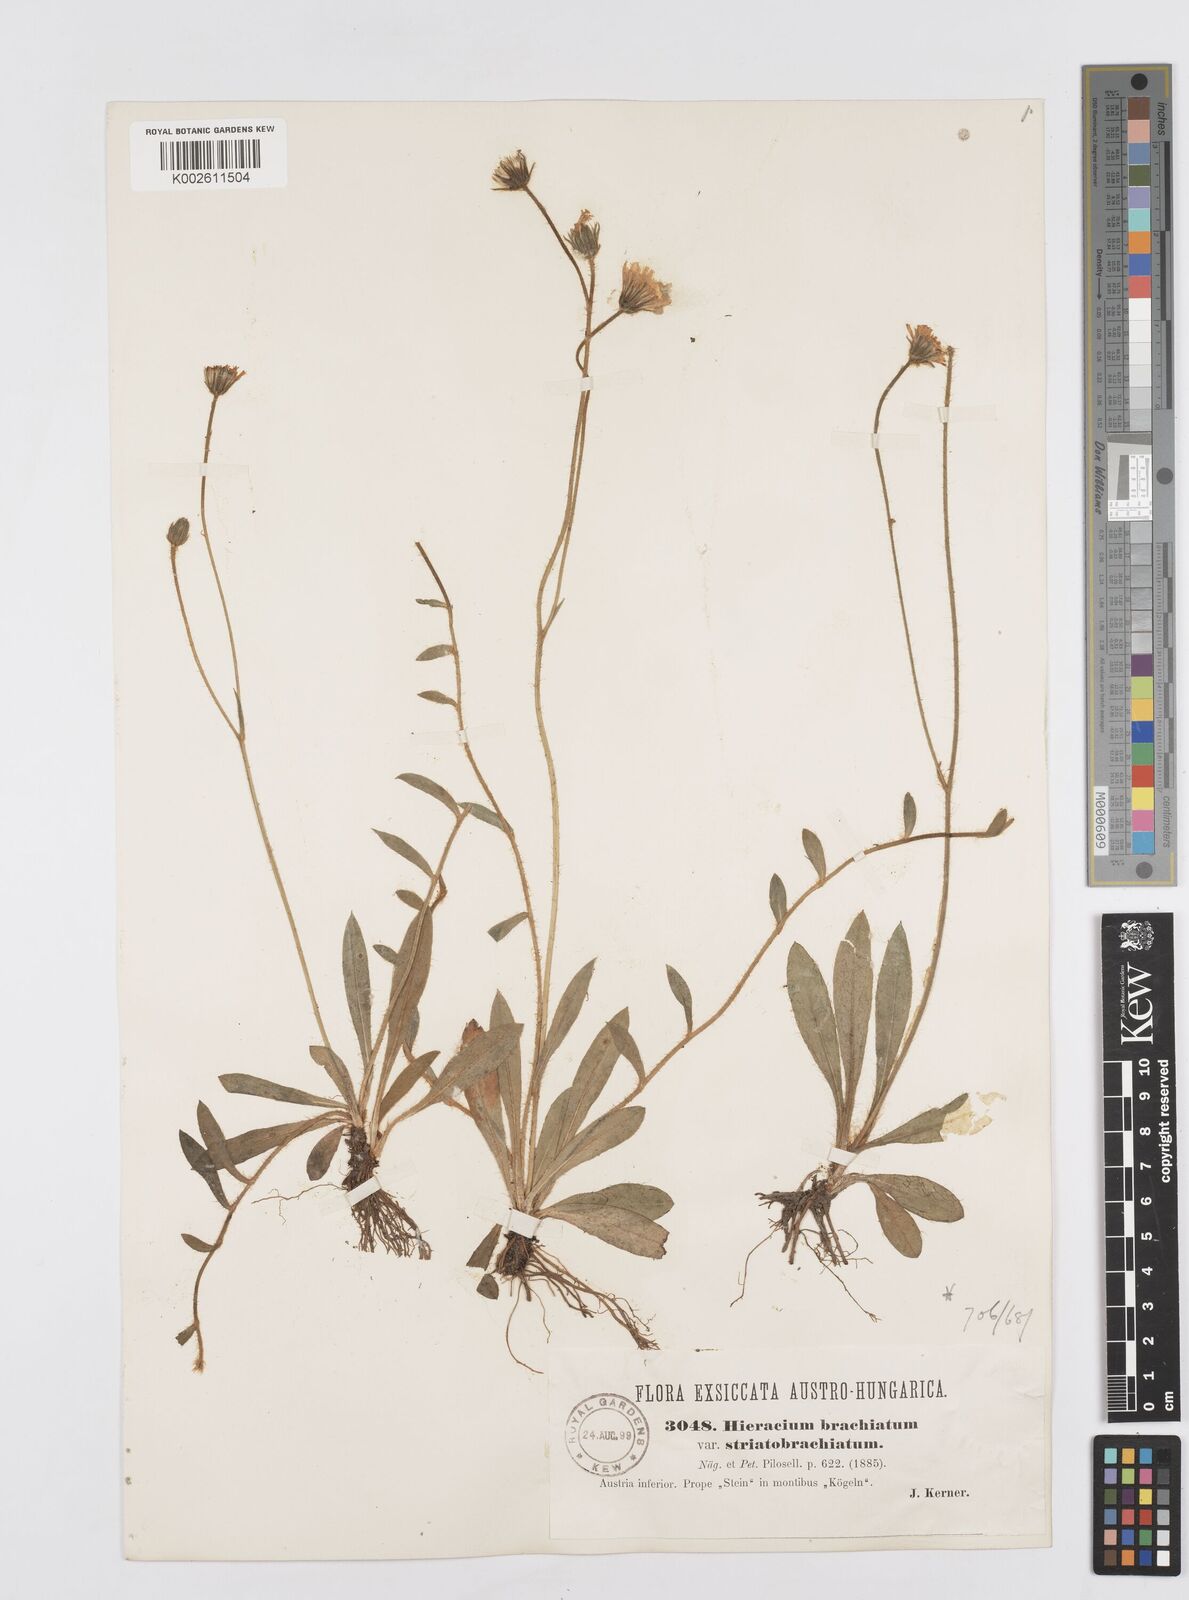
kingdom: Plantae
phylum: Tracheophyta
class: Magnoliopsida
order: Asterales
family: Asteraceae
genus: Pilosella
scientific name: Pilosella acutifolia
